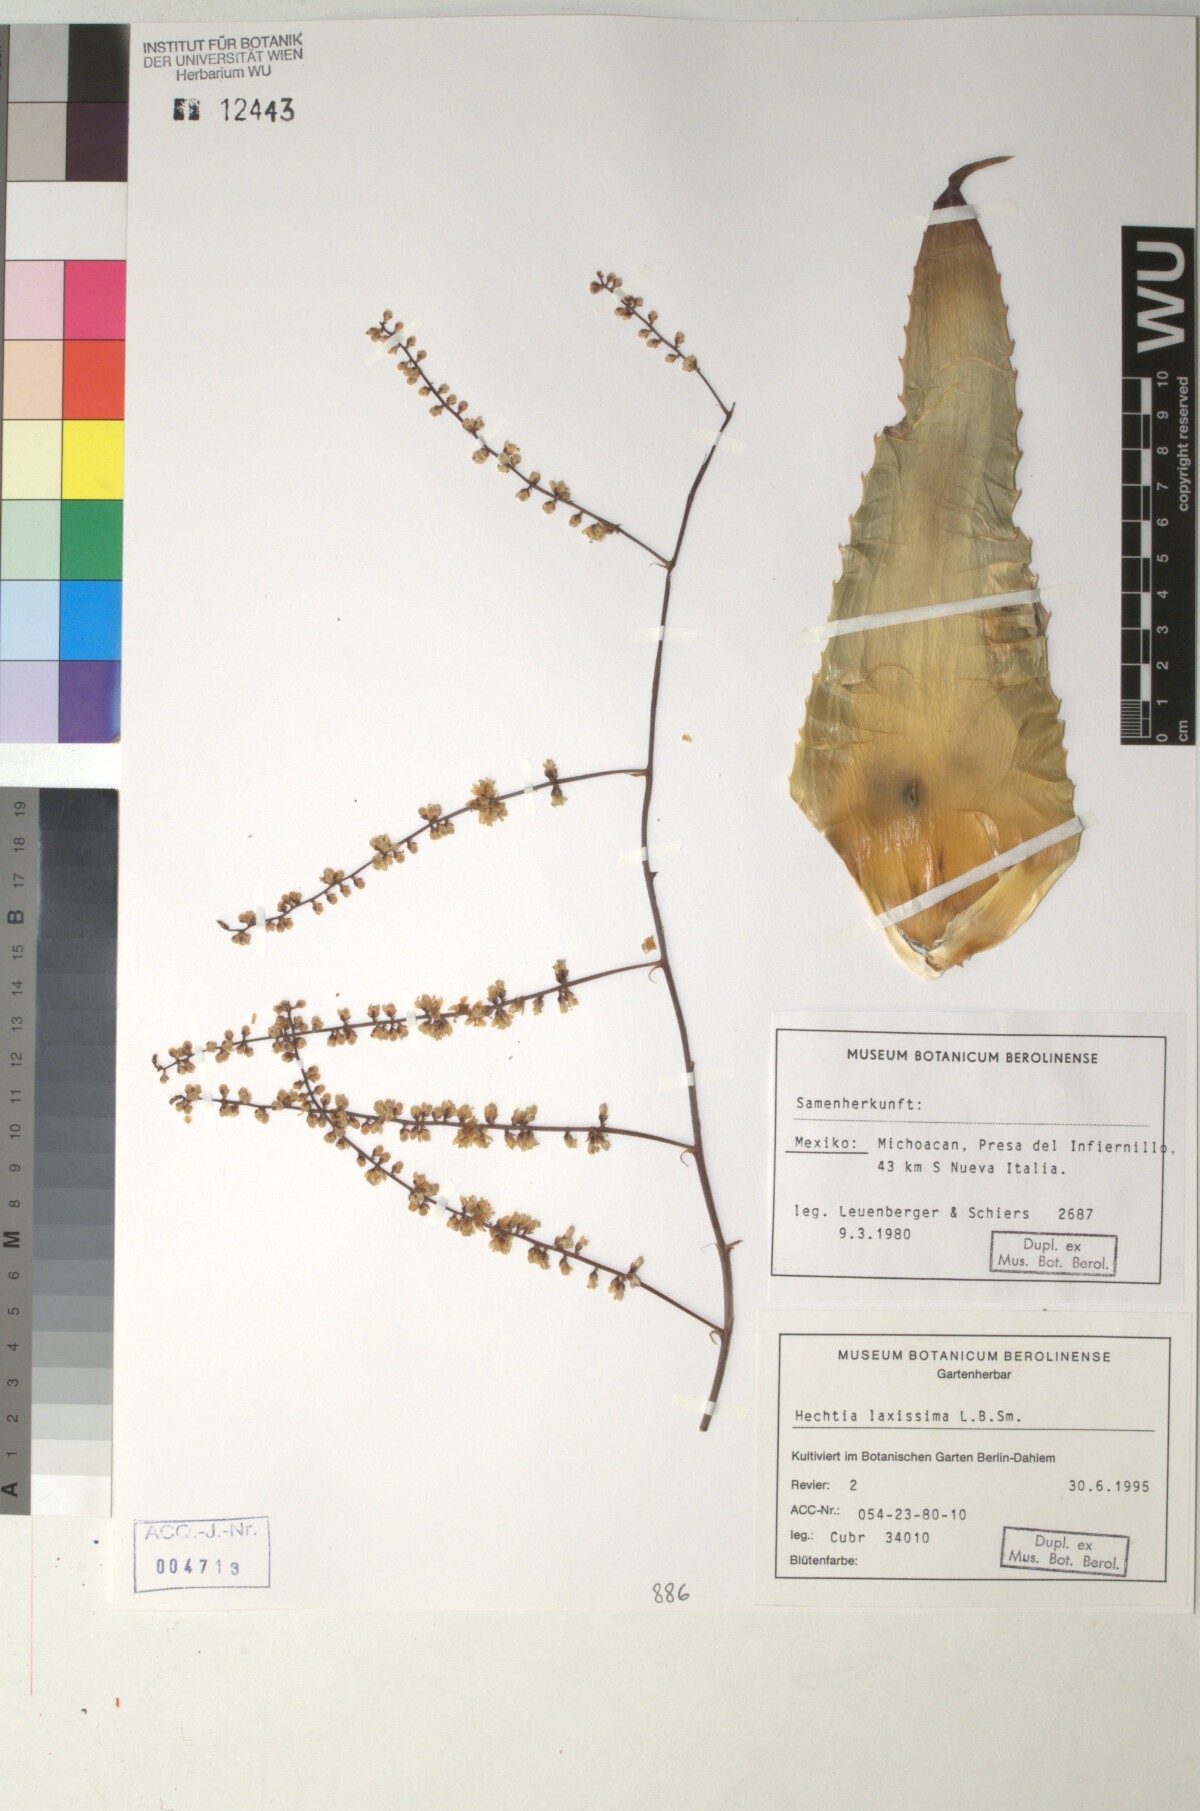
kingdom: Plantae
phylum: Tracheophyta
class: Liliopsida
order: Poales
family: Bromeliaceae
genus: Hechtia
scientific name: Hechtia glauca
